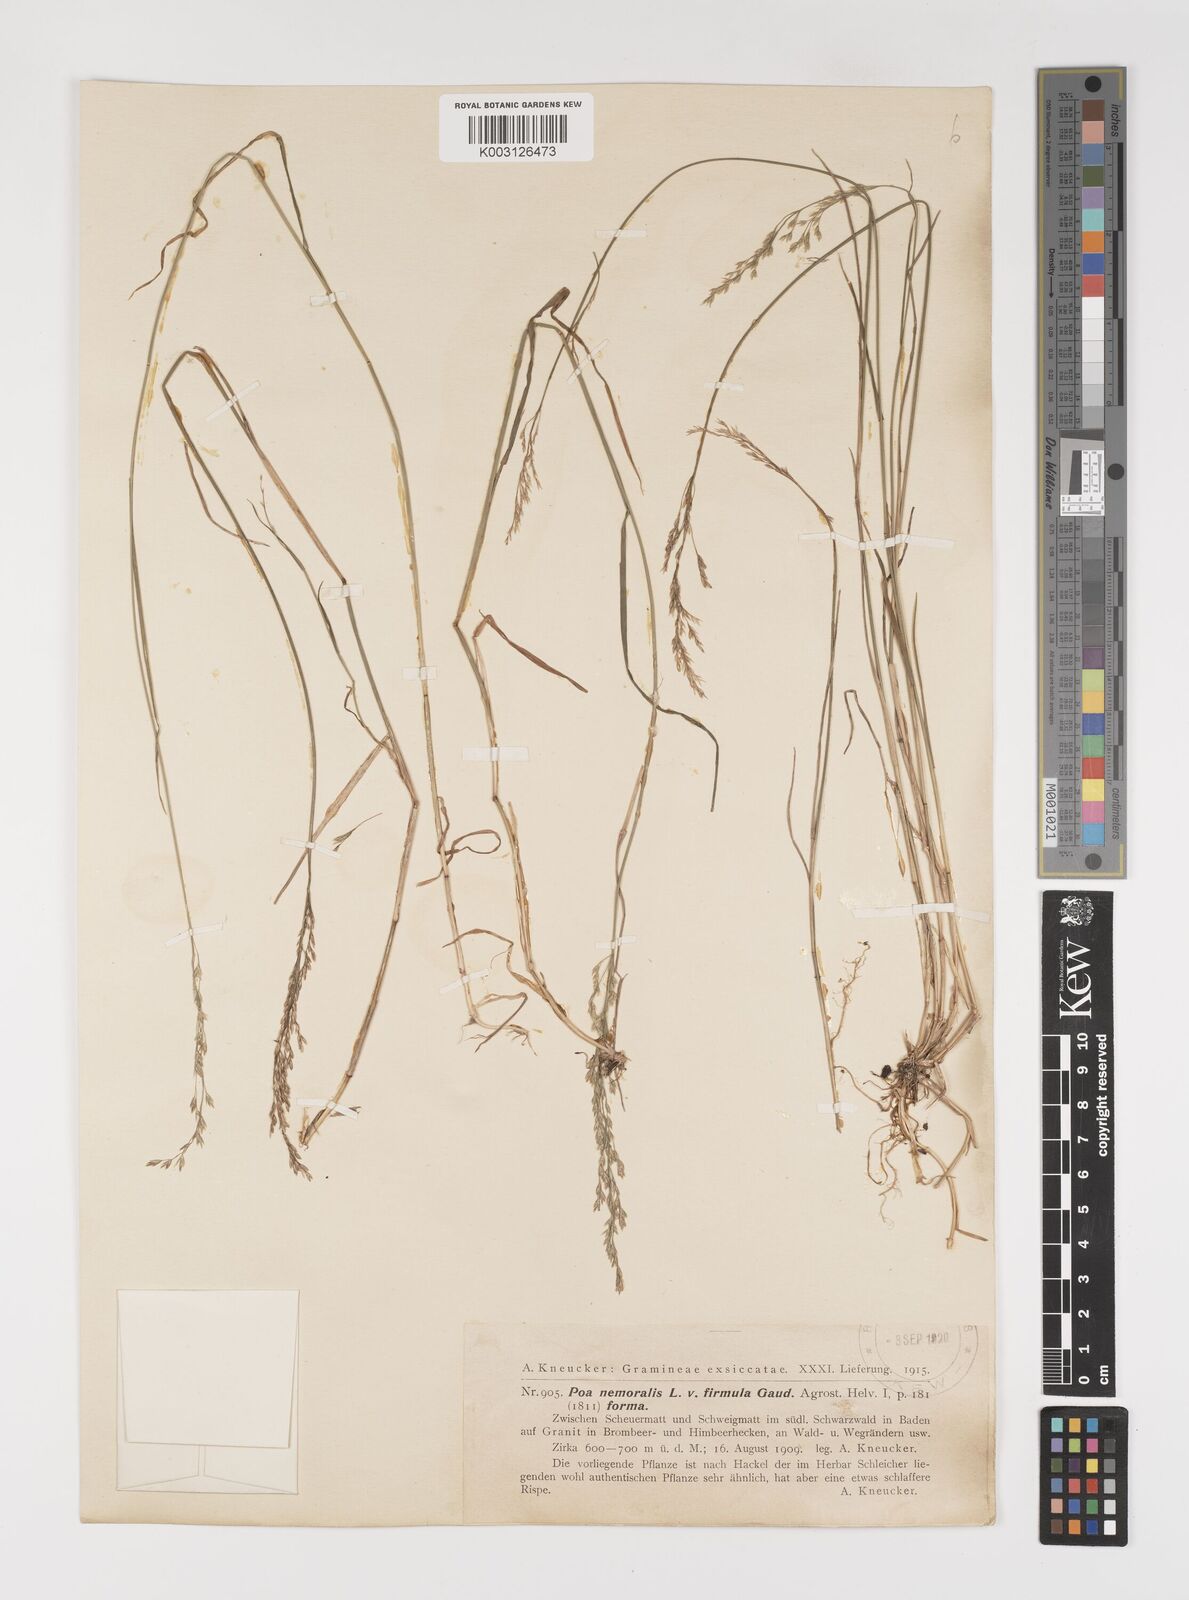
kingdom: Plantae
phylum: Tracheophyta
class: Liliopsida
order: Poales
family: Poaceae
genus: Poa
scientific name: Poa nemoralis
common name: Wood bluegrass
